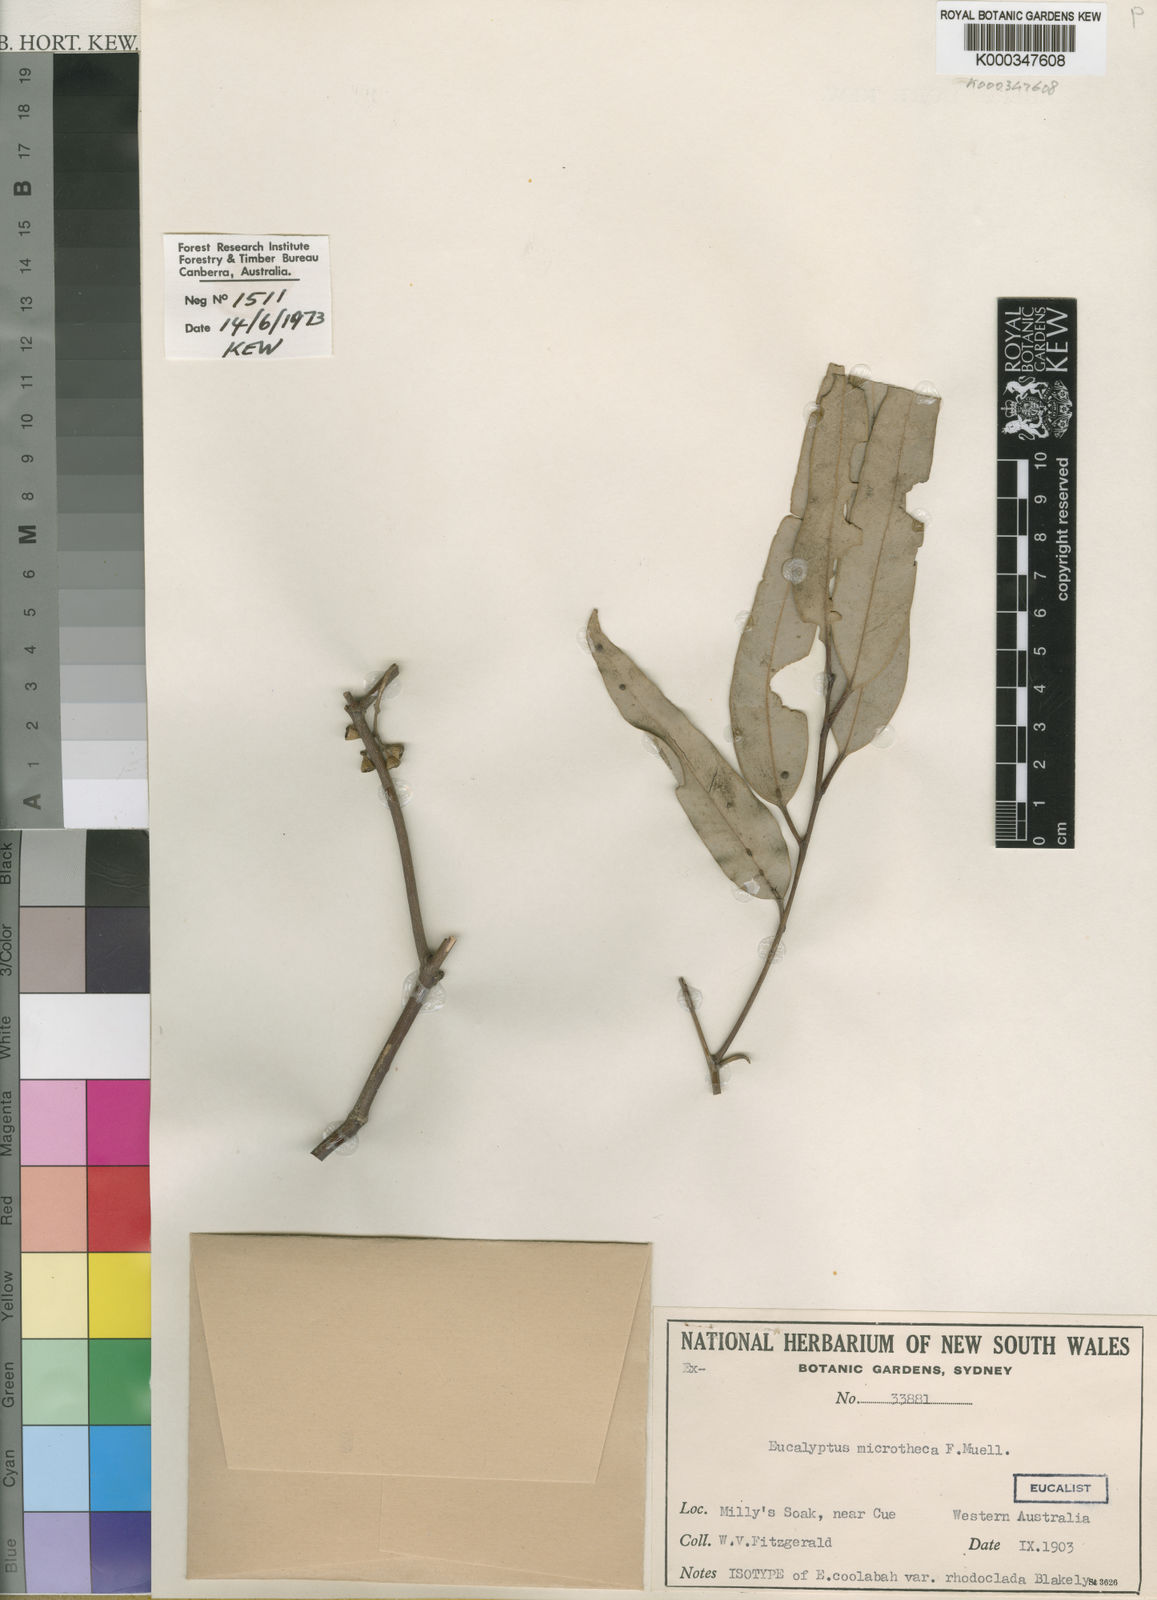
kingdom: Plantae
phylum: Tracheophyta
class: Magnoliopsida
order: Myrtales
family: Myrtaceae
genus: Eucalyptus
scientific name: Eucalyptus microtheca
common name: Coolibah
